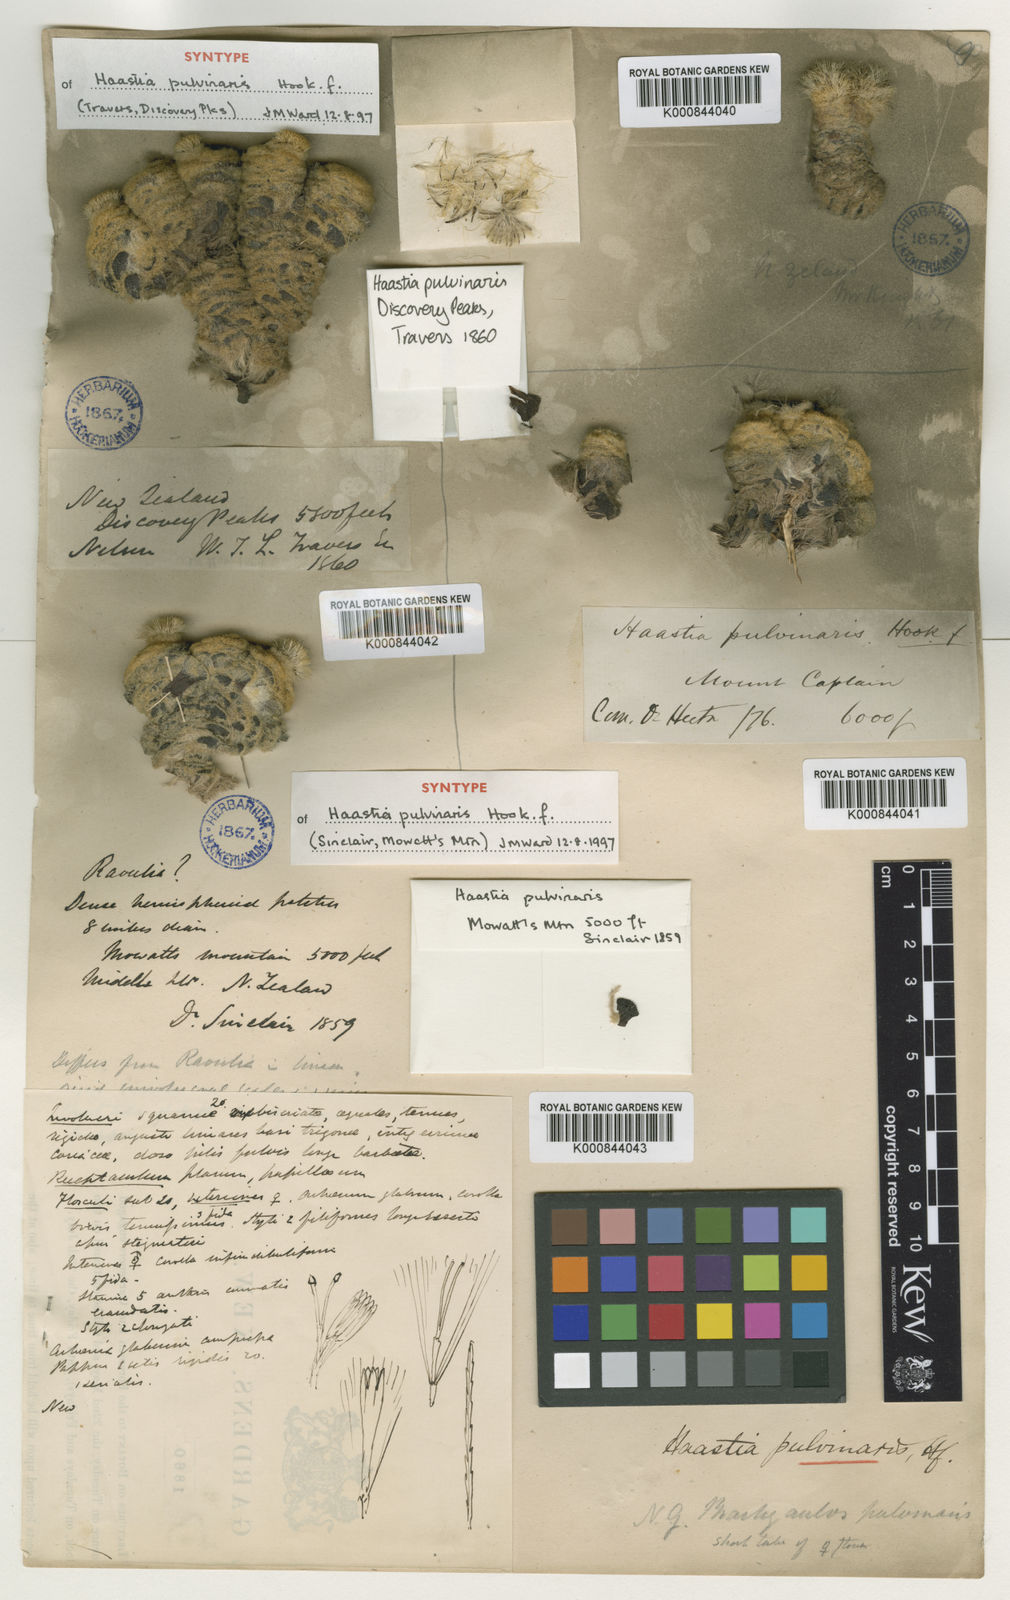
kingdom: Plantae
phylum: Tracheophyta
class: Magnoliopsida
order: Asterales
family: Asteraceae
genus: Haastia
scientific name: Haastia pulvinaris
